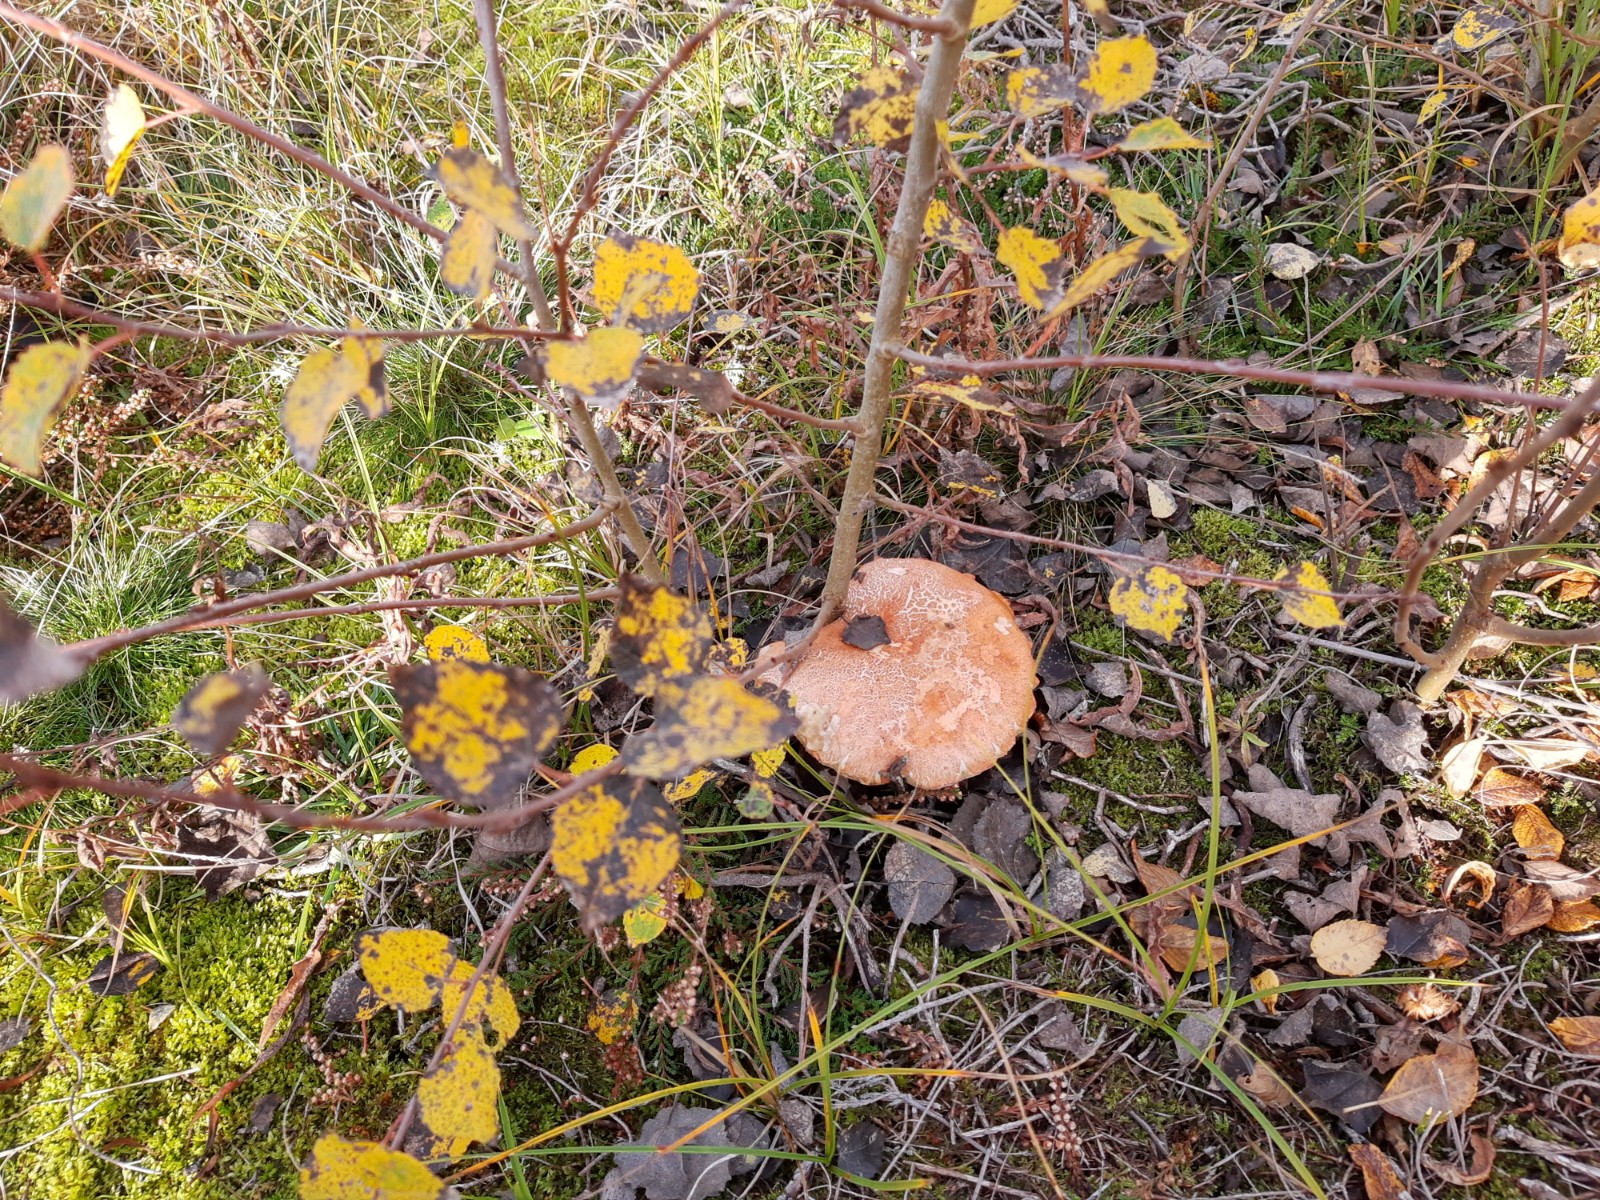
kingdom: Fungi
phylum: Basidiomycota
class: Agaricomycetes
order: Boletales
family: Boletaceae
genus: Leccinum
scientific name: Leccinum albostipitatum
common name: aspe-skælrørhat
